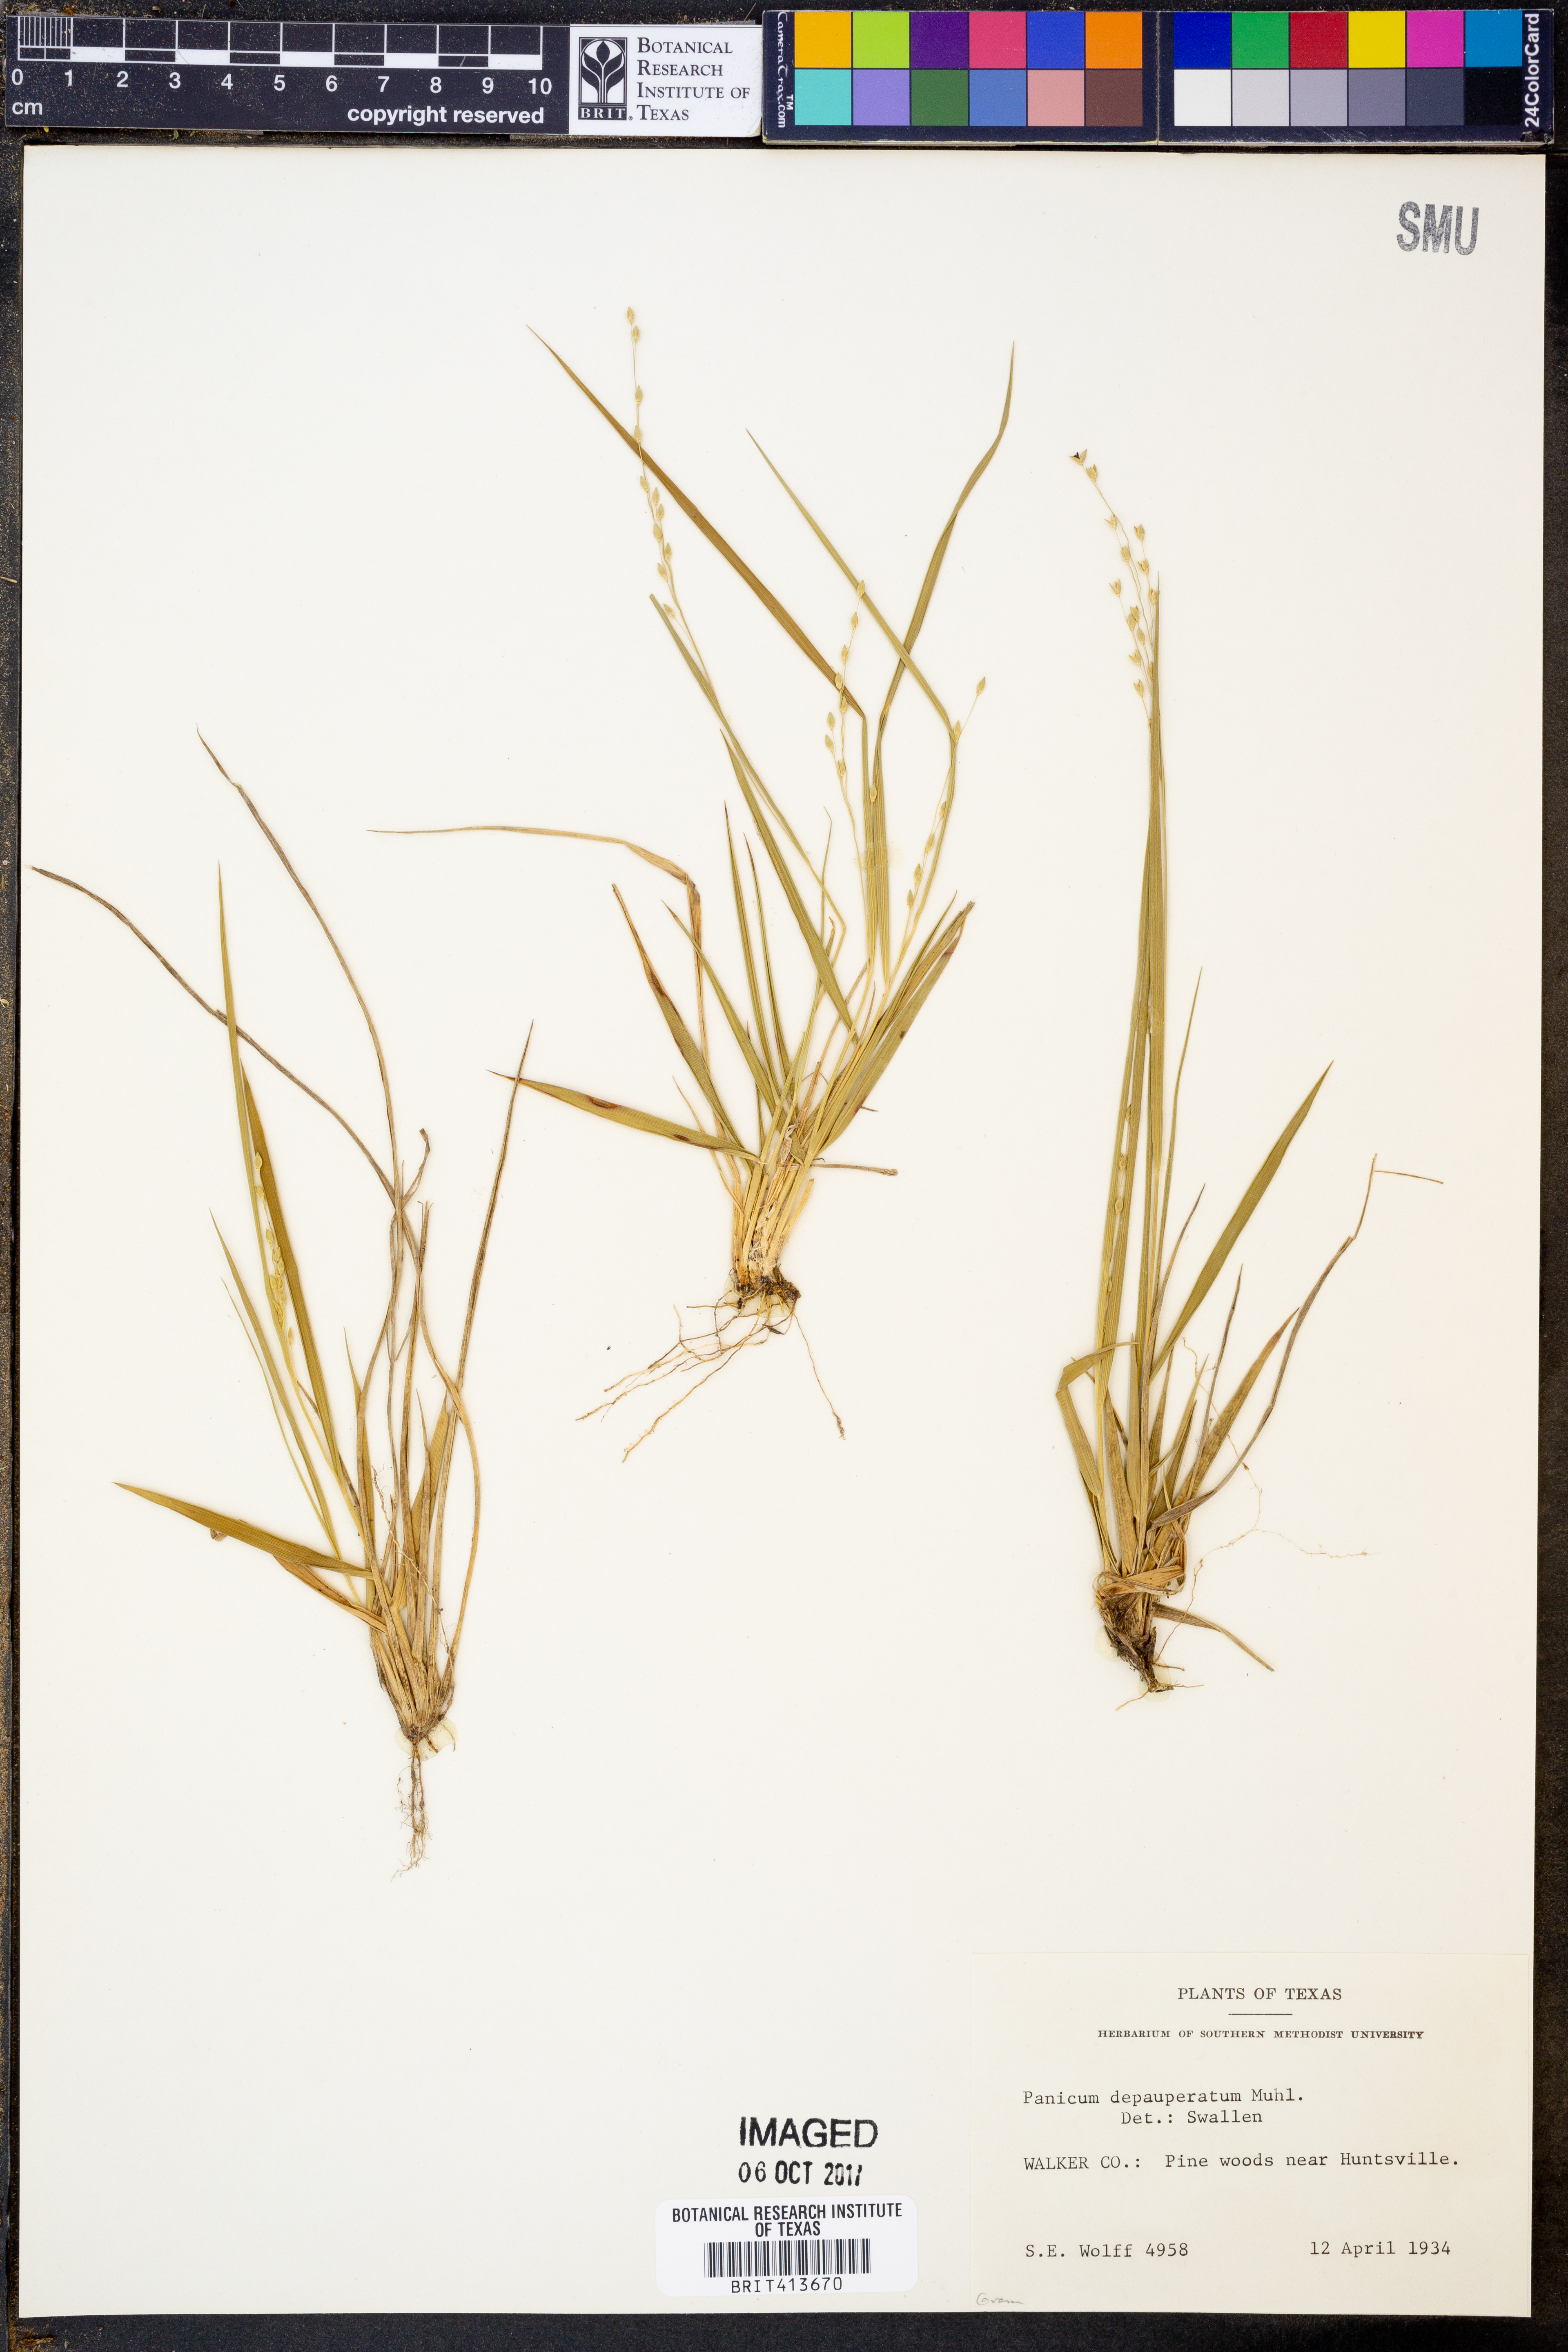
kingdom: Plantae
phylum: Tracheophyta
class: Liliopsida
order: Poales
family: Poaceae
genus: Dichanthelium
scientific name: Dichanthelium depauperatum
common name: Depauperate panicgrass
